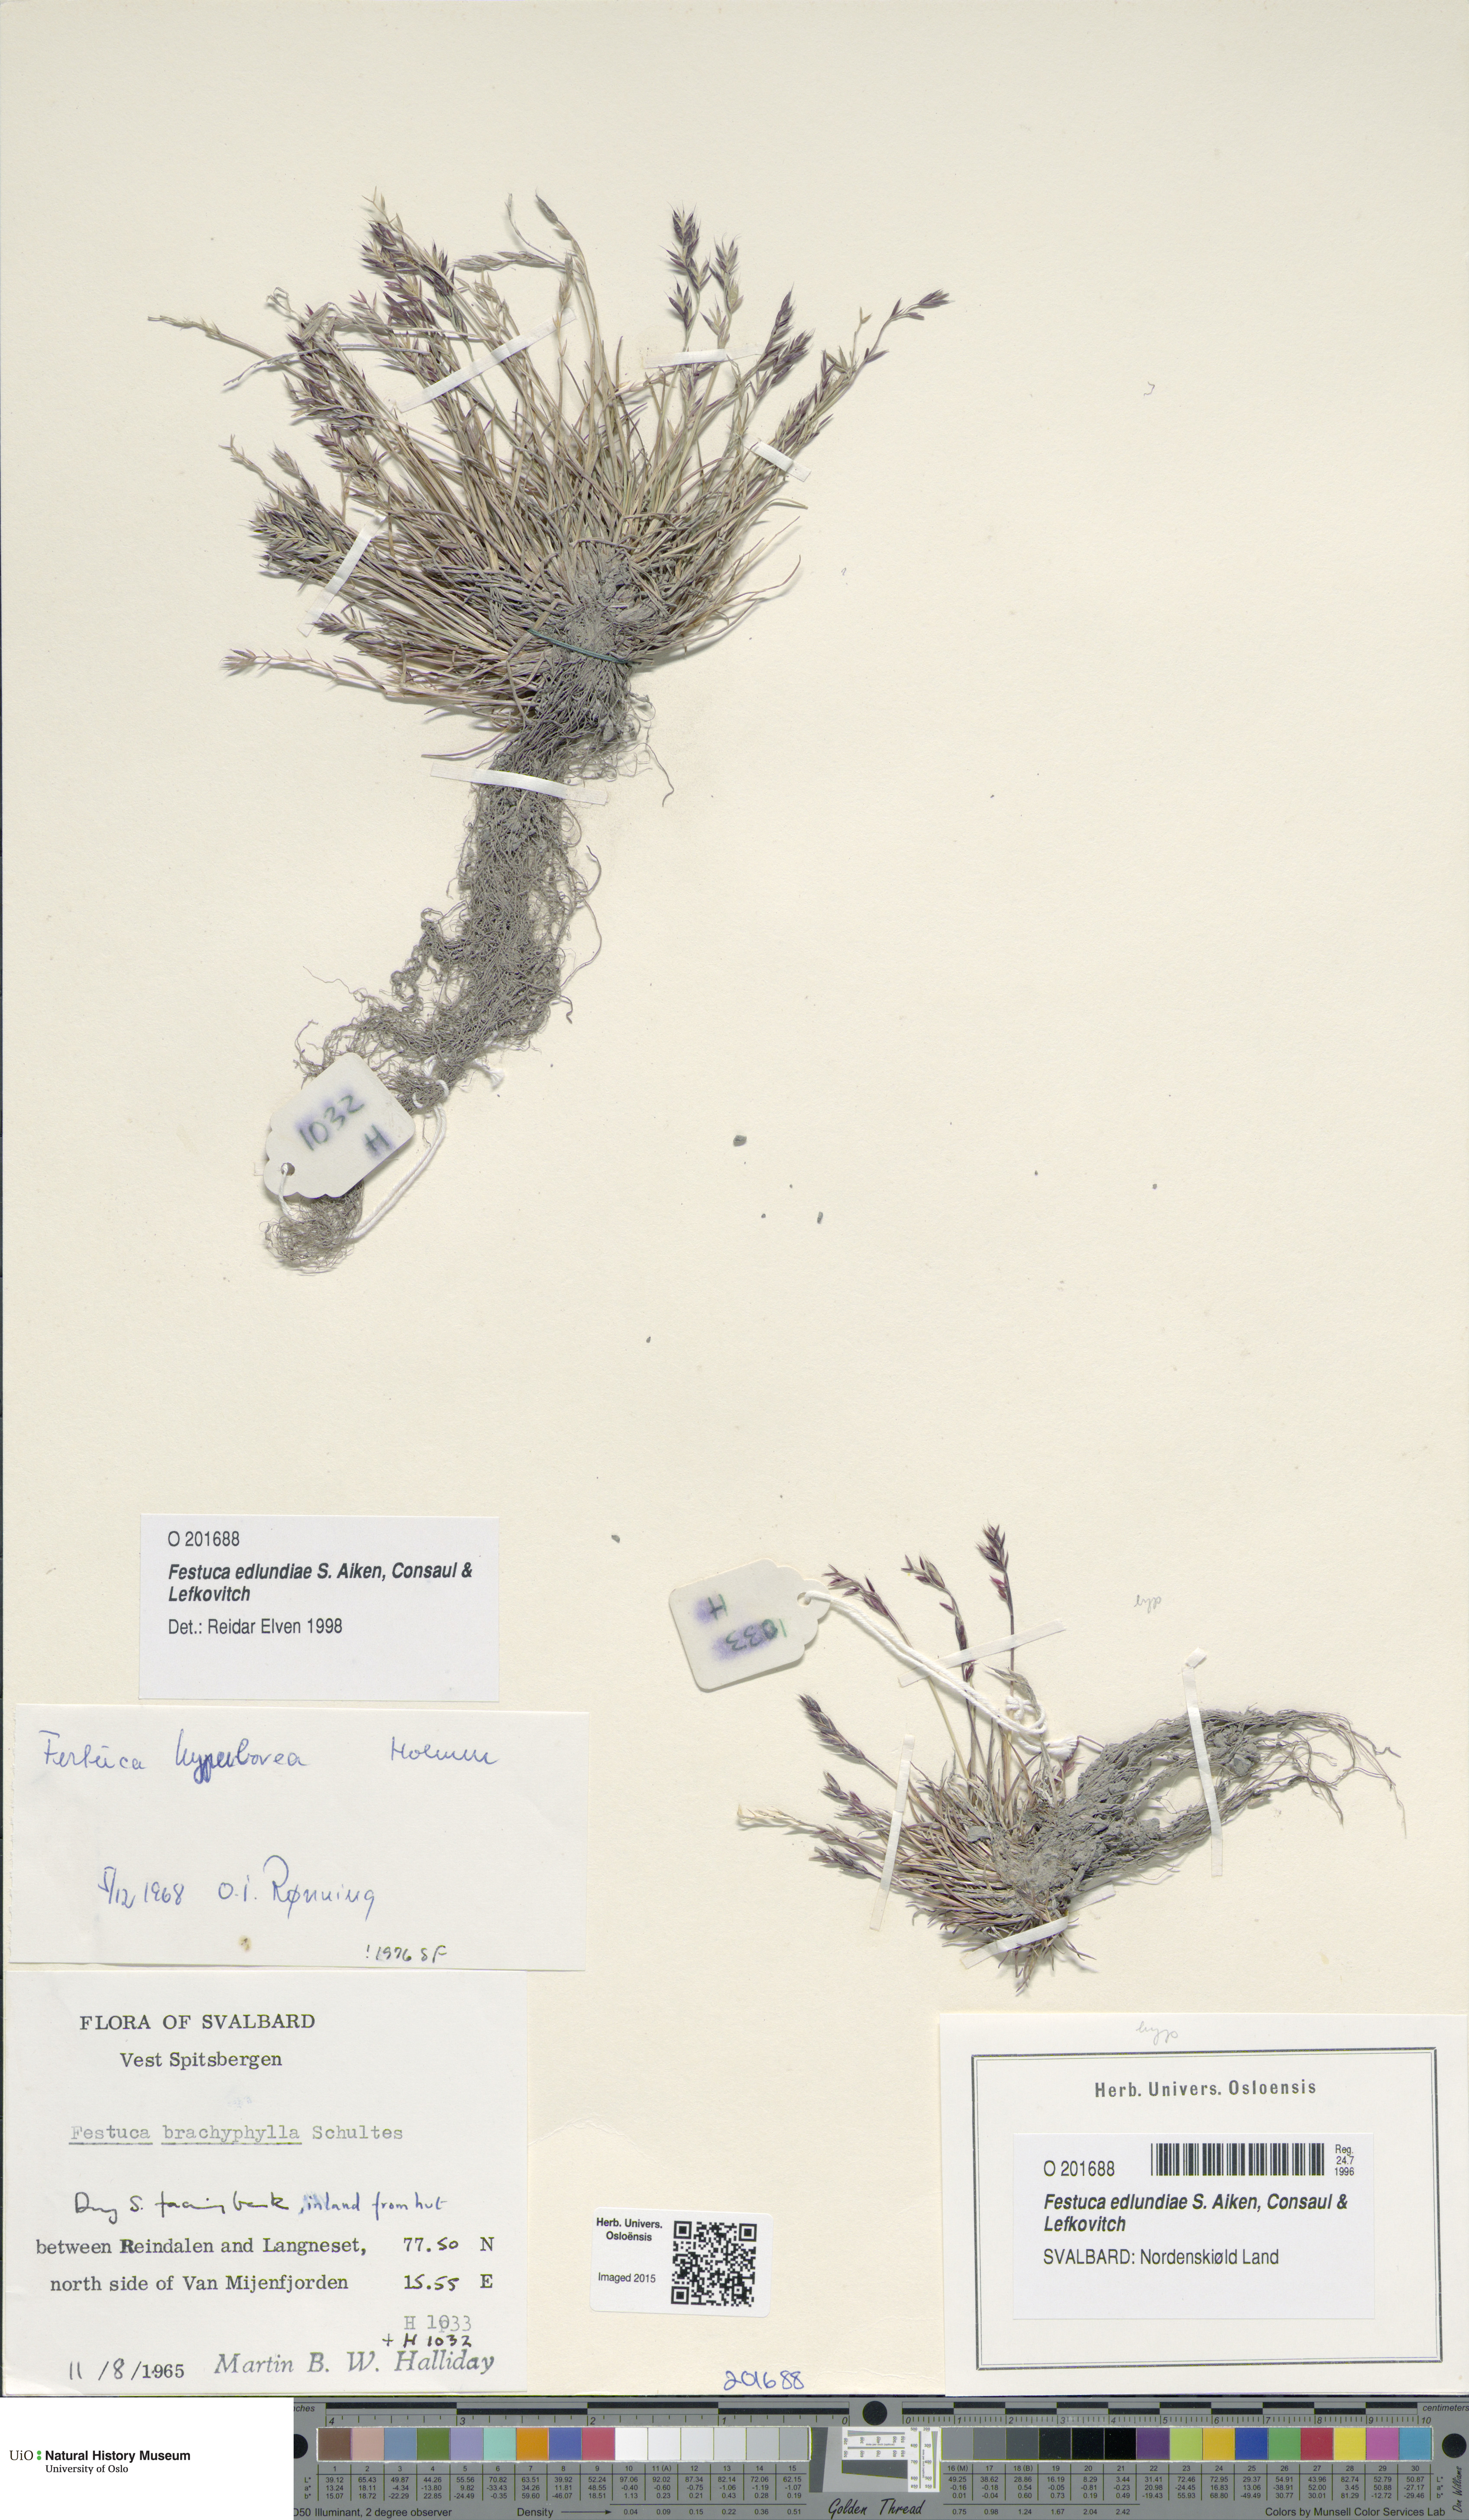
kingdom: Plantae
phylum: Tracheophyta
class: Liliopsida
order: Poales
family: Poaceae
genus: Festuca
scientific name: Festuca edlundiae
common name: Edlund's fescue
